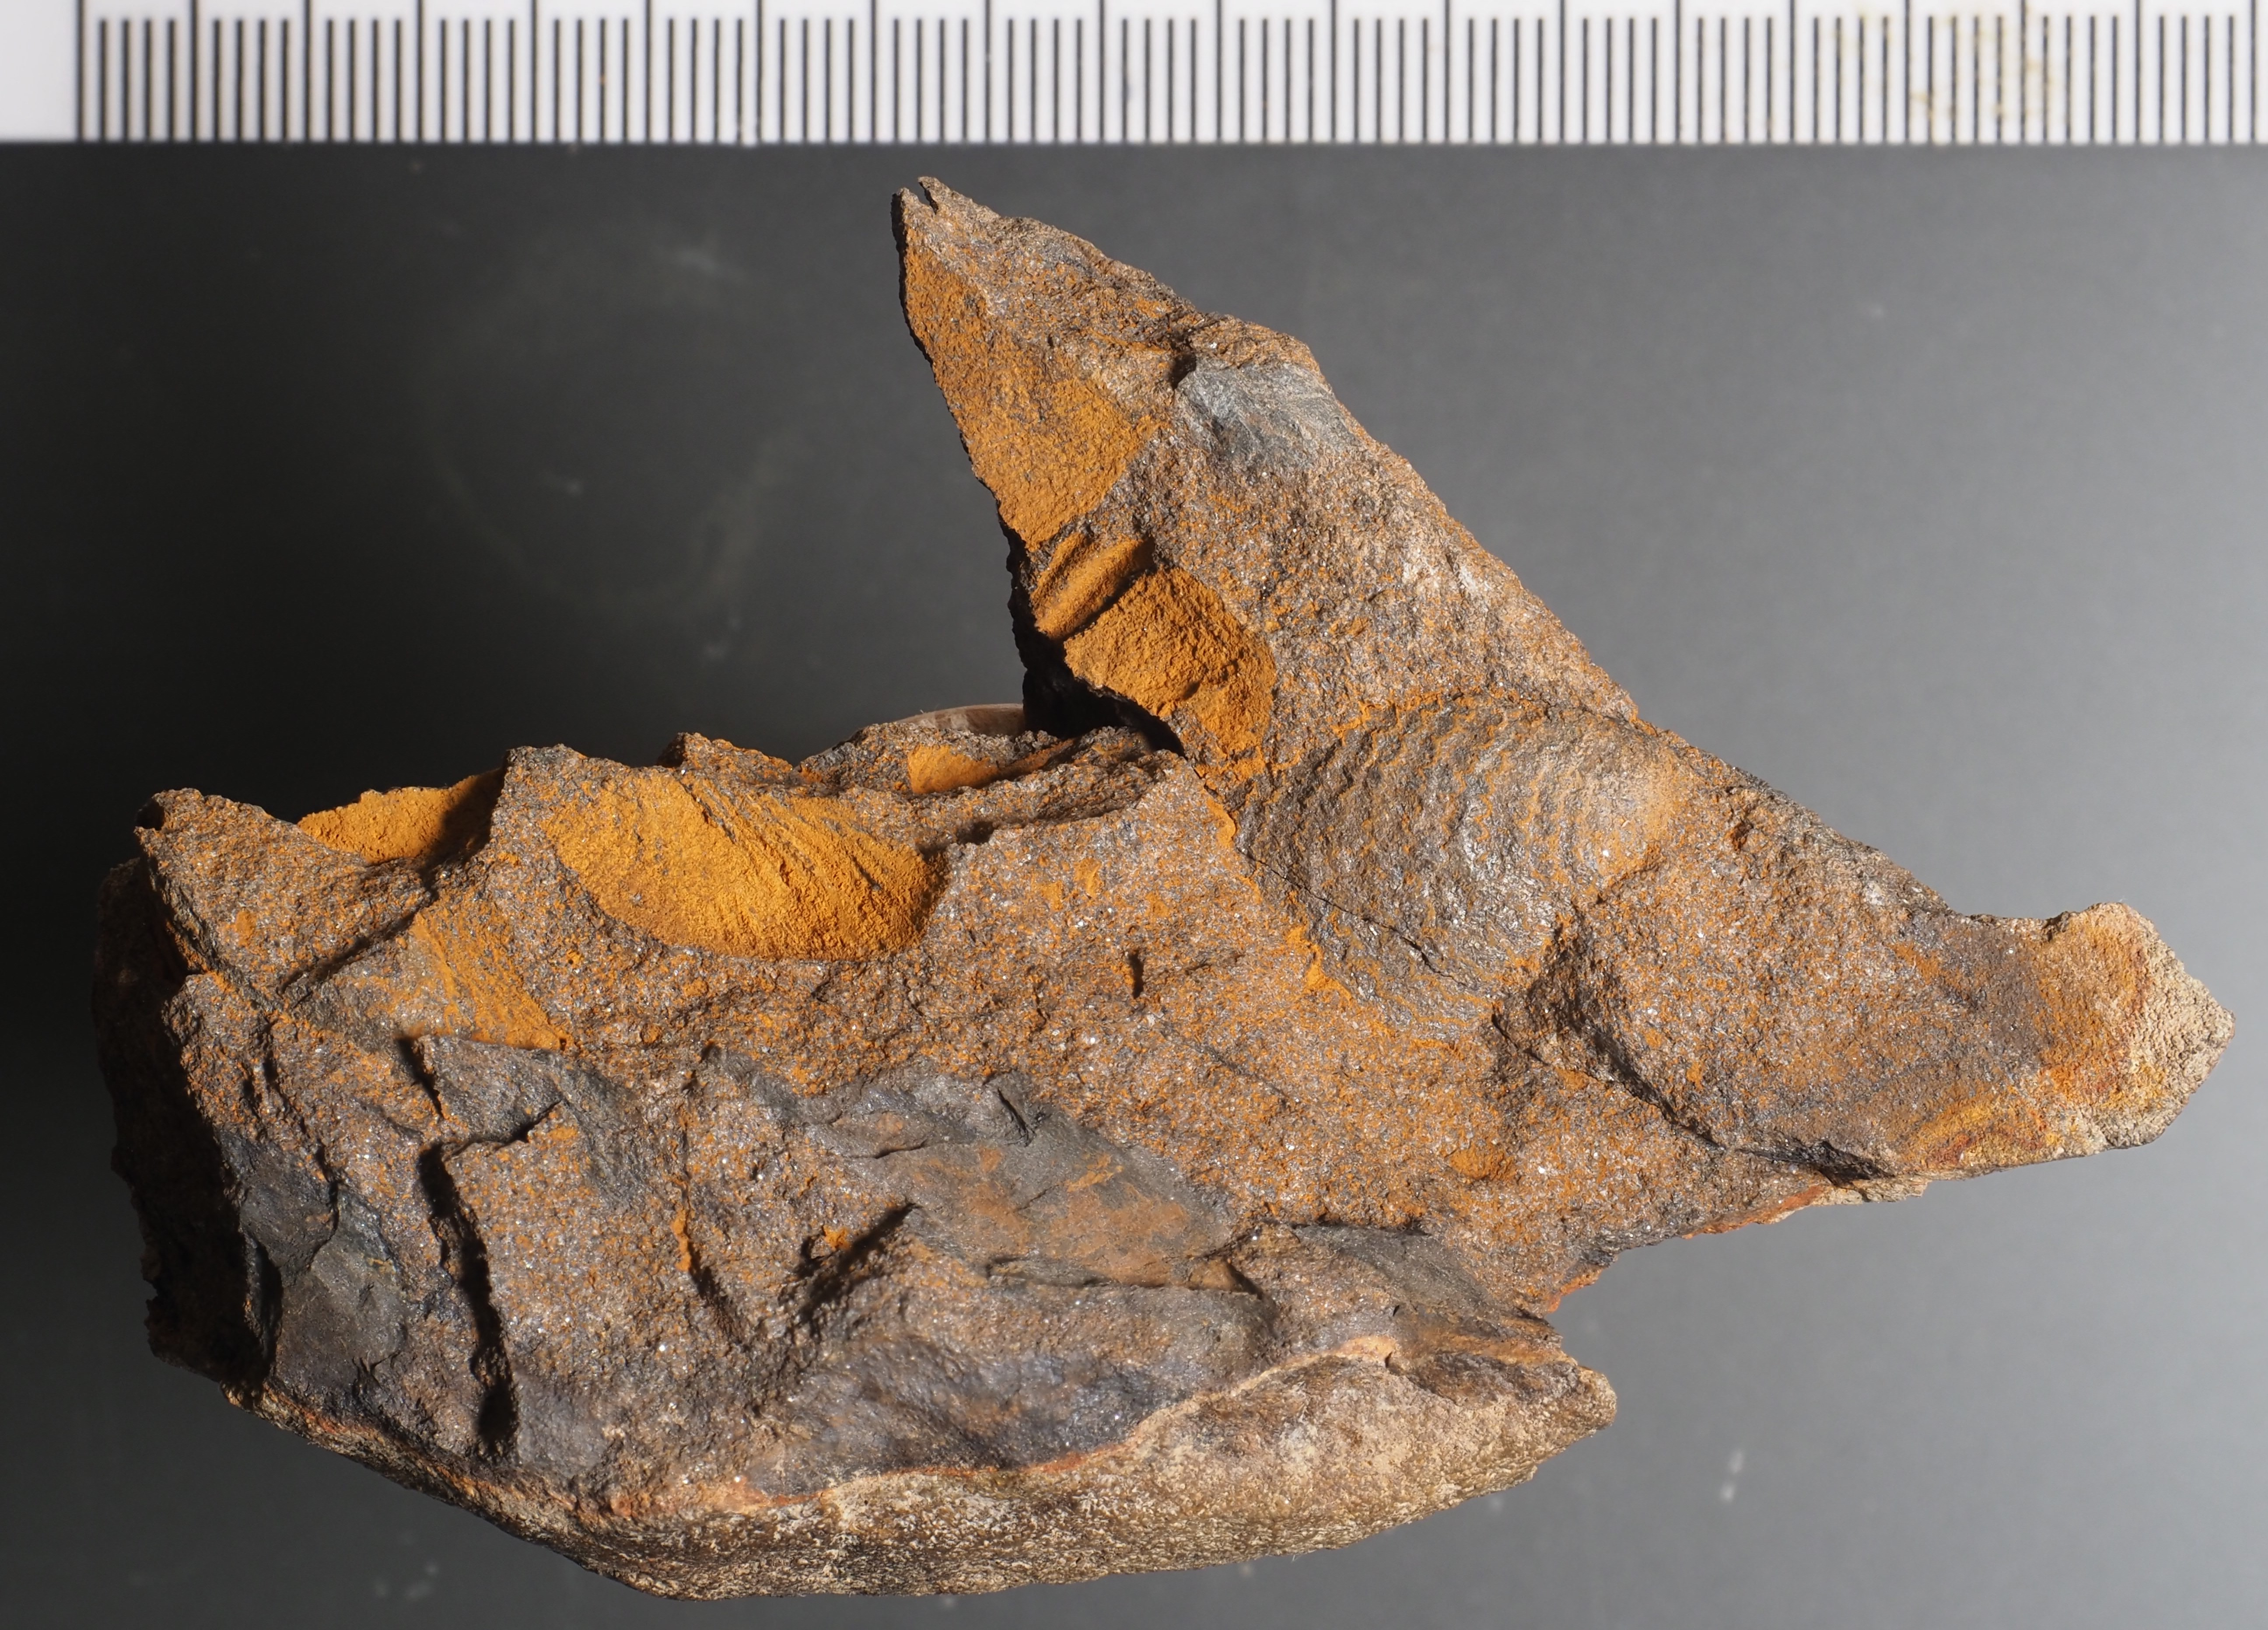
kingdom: Animalia
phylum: Mollusca
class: Bivalvia
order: Ostreida
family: Pterineidae
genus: Leptodesma
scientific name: Leptodesma
